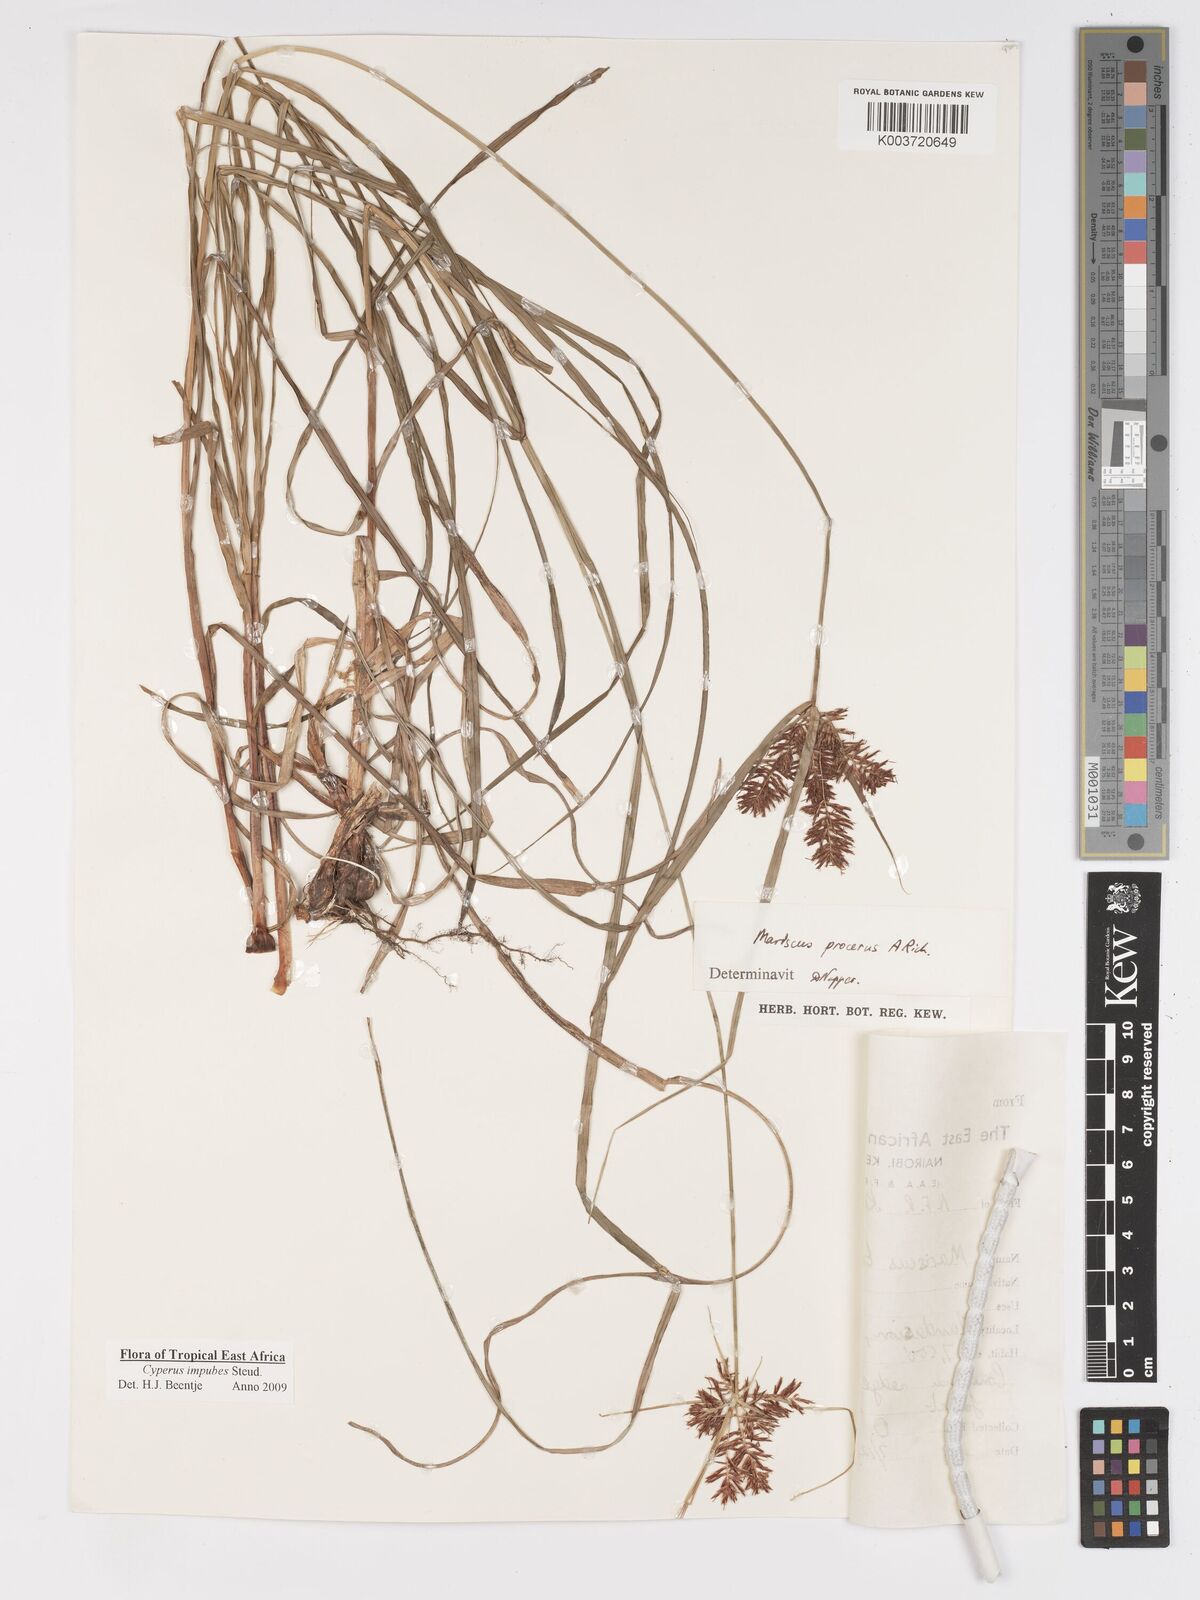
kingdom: Plantae
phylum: Tracheophyta
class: Liliopsida
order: Poales
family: Cyperaceae
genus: Cyperus
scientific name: Cyperus impubes
